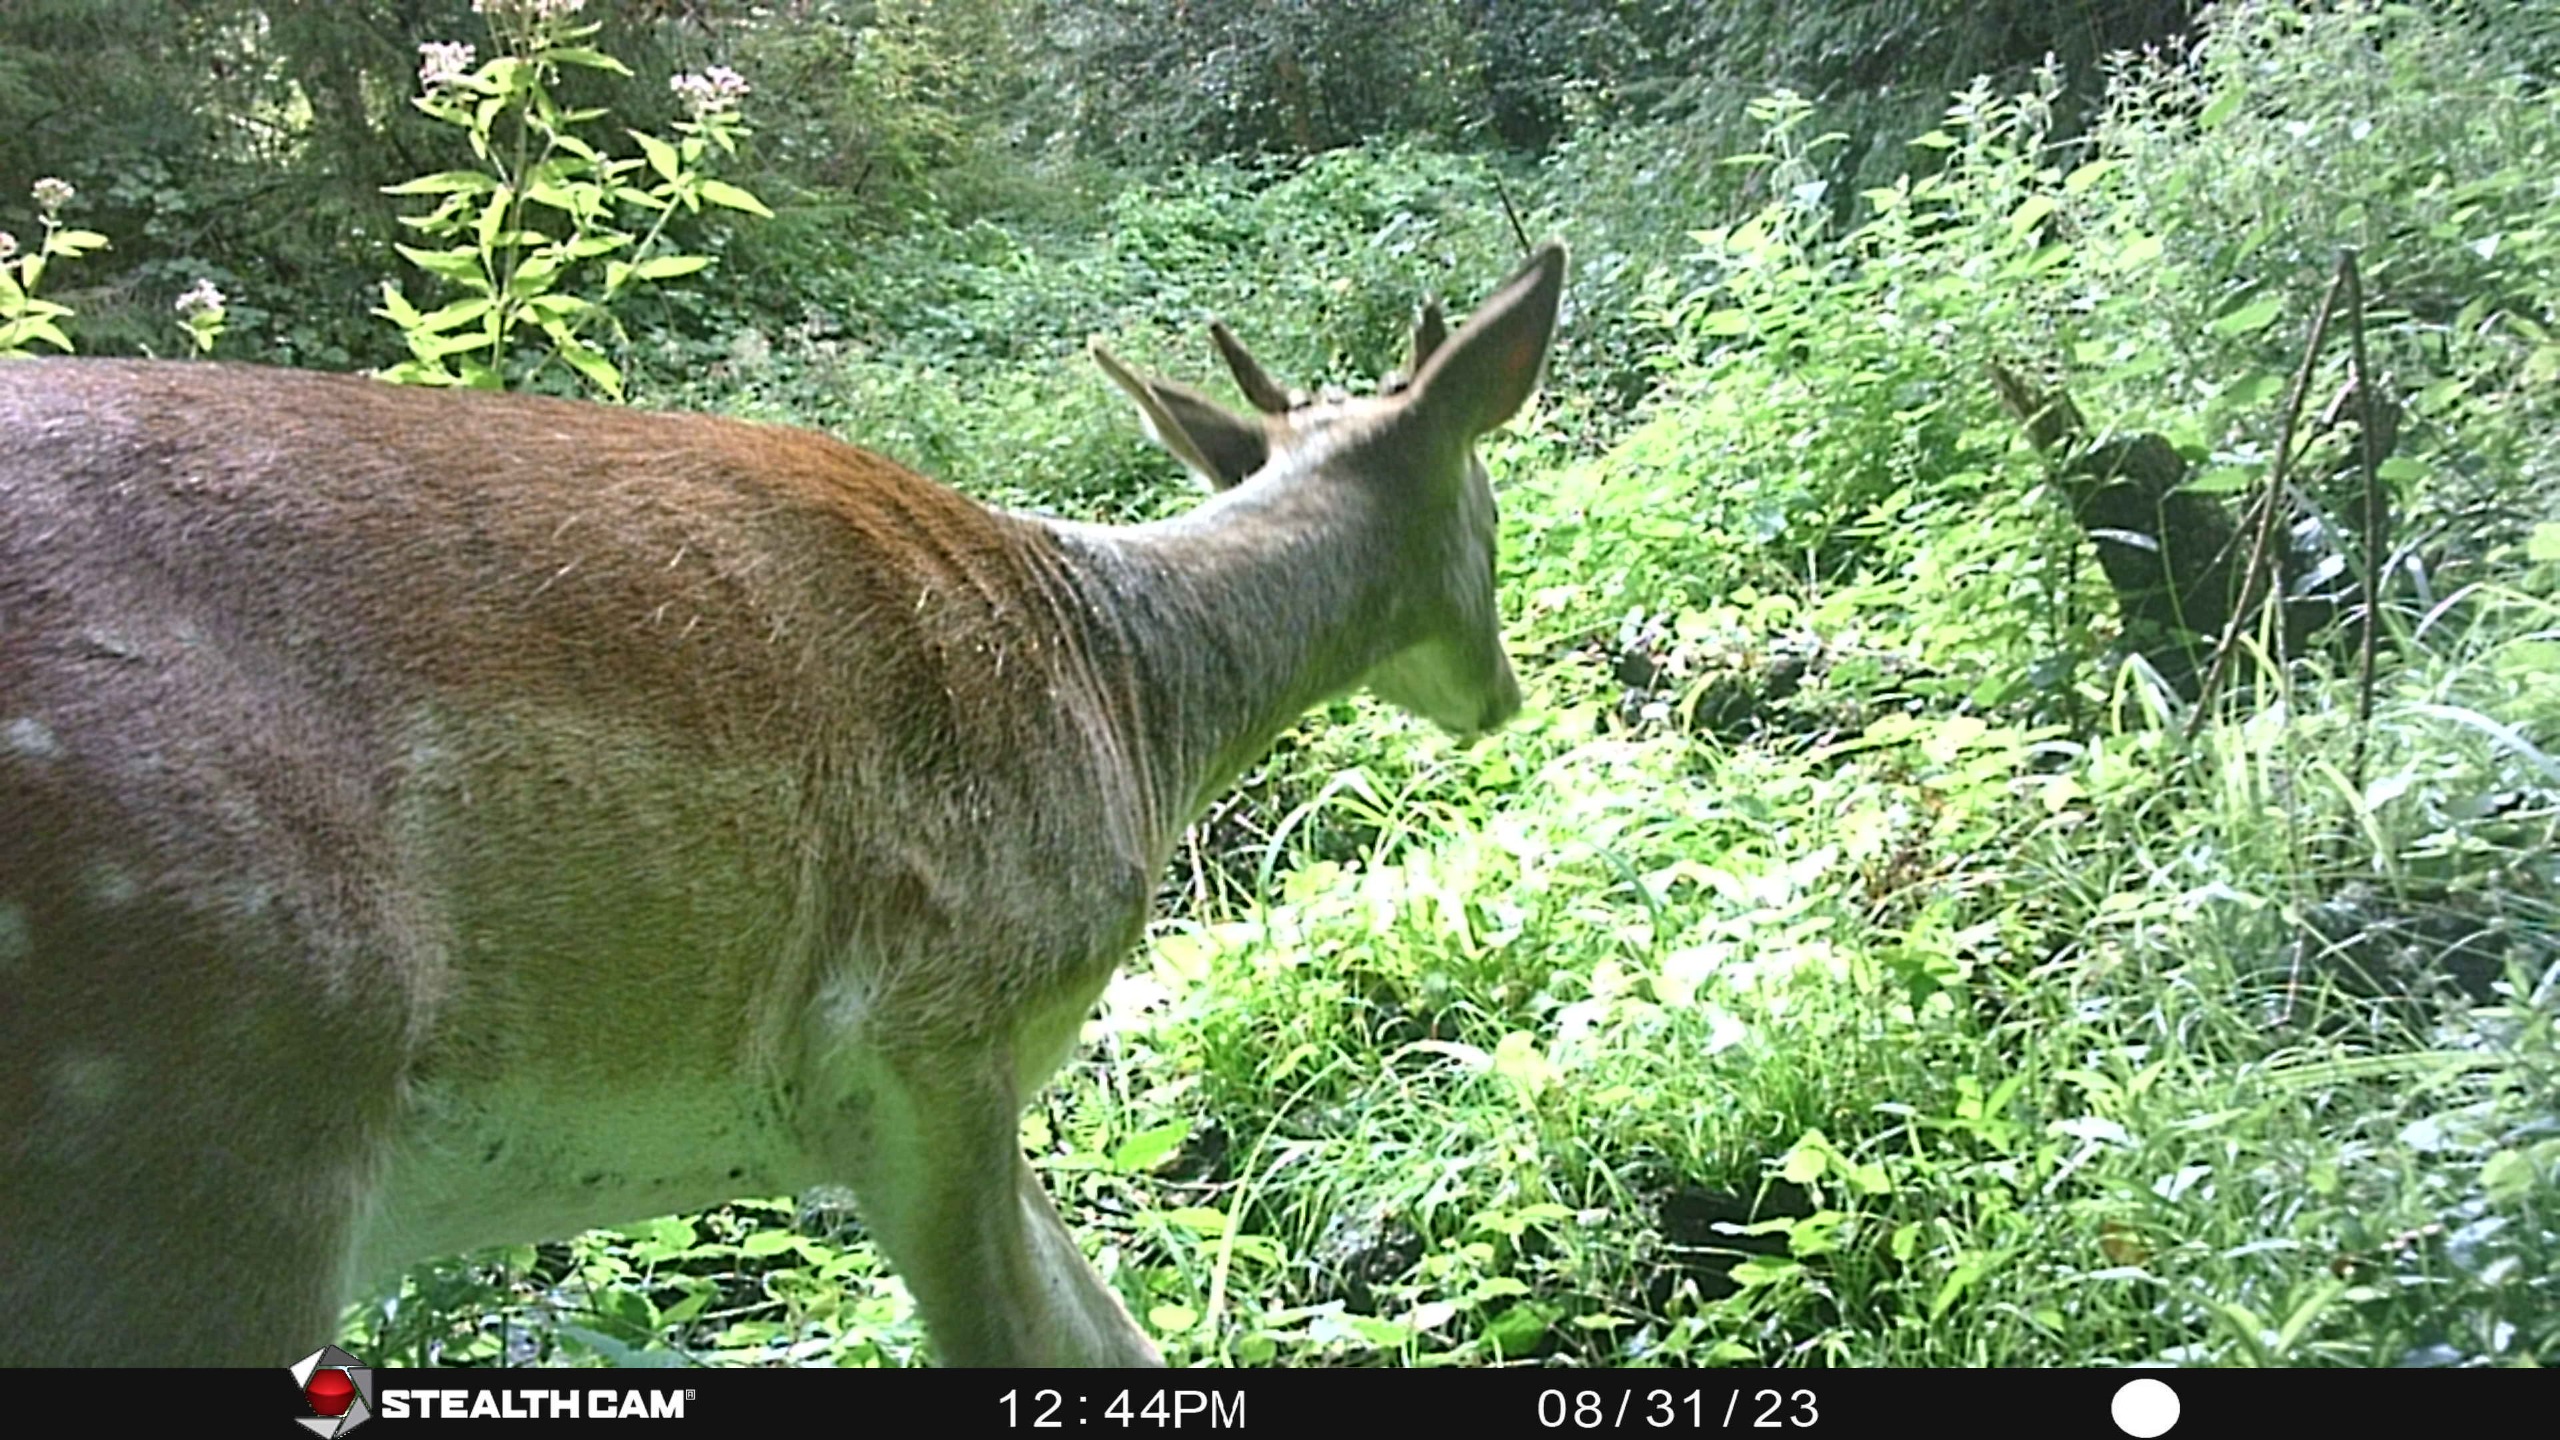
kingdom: Animalia
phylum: Chordata
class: Mammalia
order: Artiodactyla
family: Cervidae
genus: Dama
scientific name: Dama dama
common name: Dådyr
